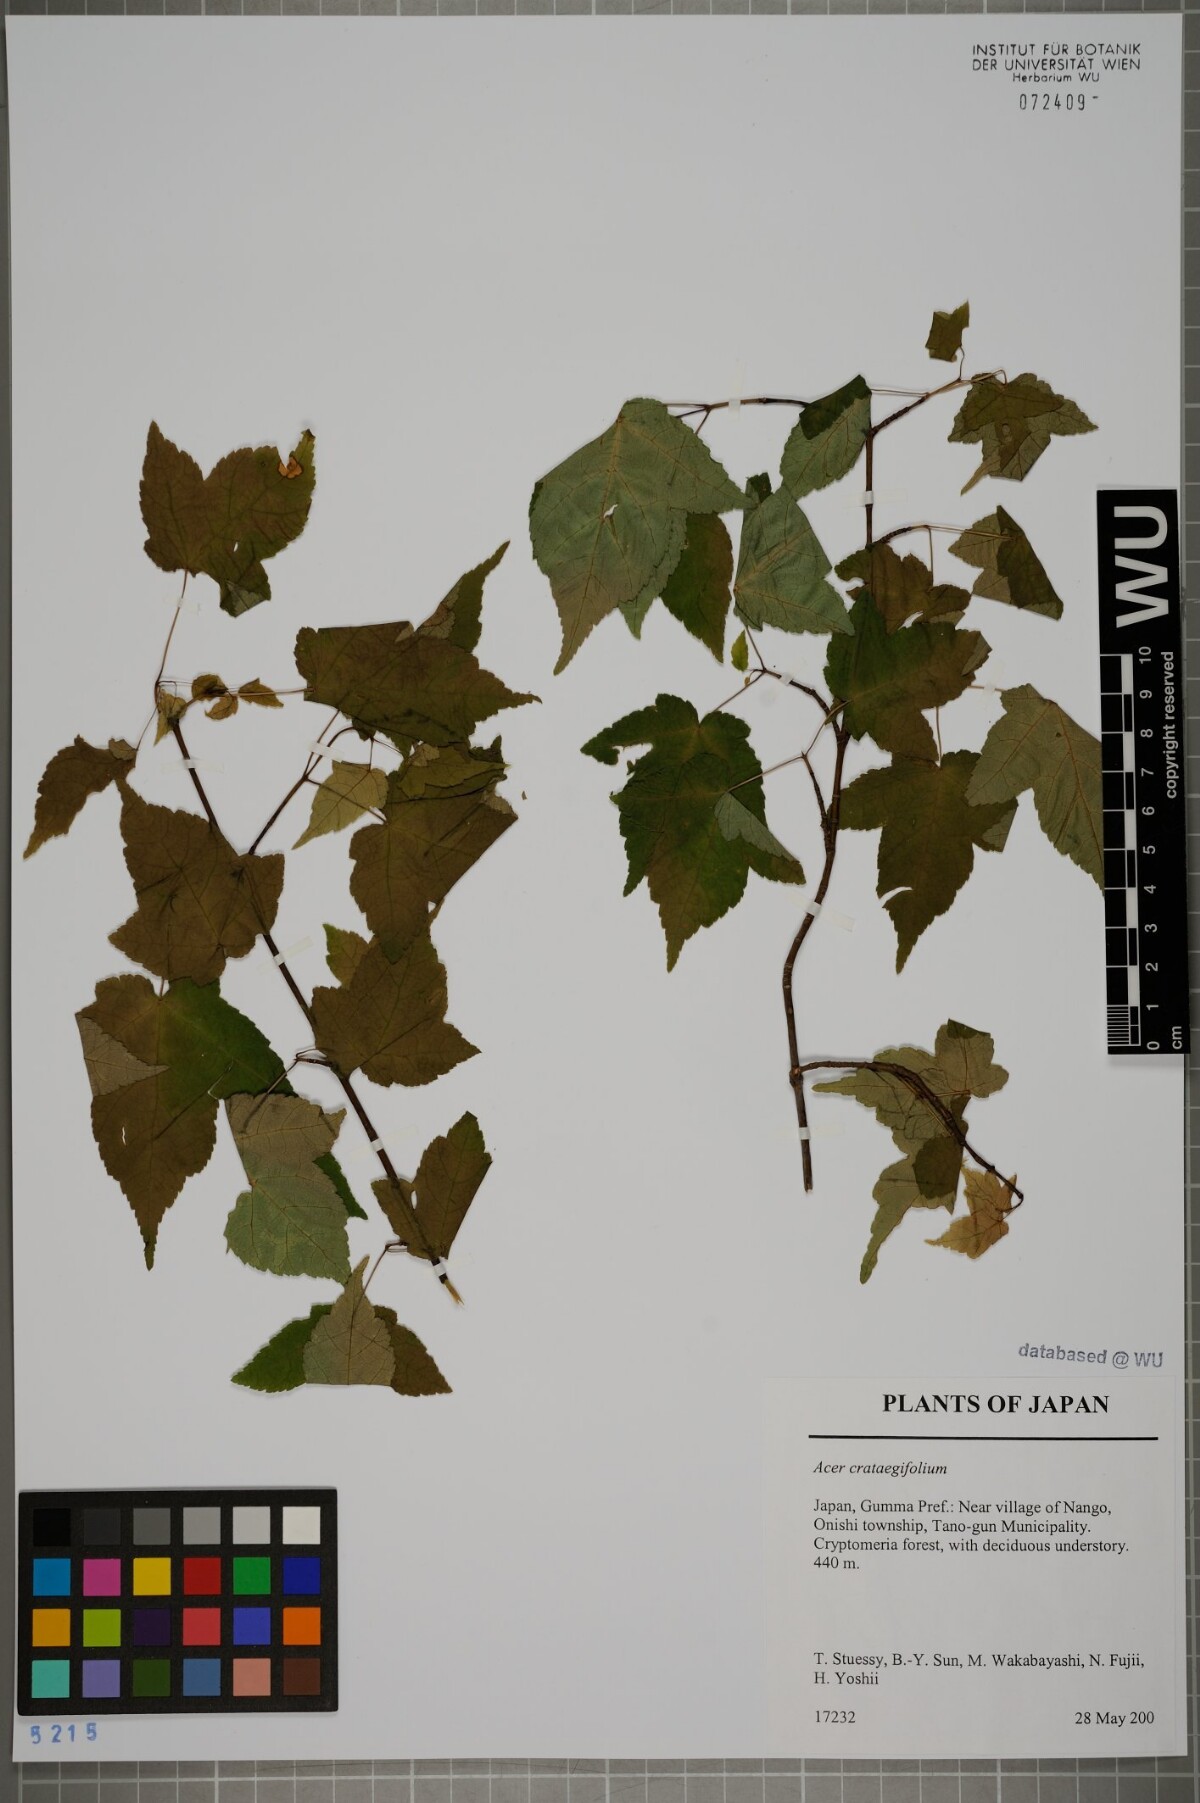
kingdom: Plantae
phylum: Tracheophyta
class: Magnoliopsida
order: Sapindales
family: Sapindaceae
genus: Acer
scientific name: Acer crataegifolium
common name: Hawthorn-leaf maple
